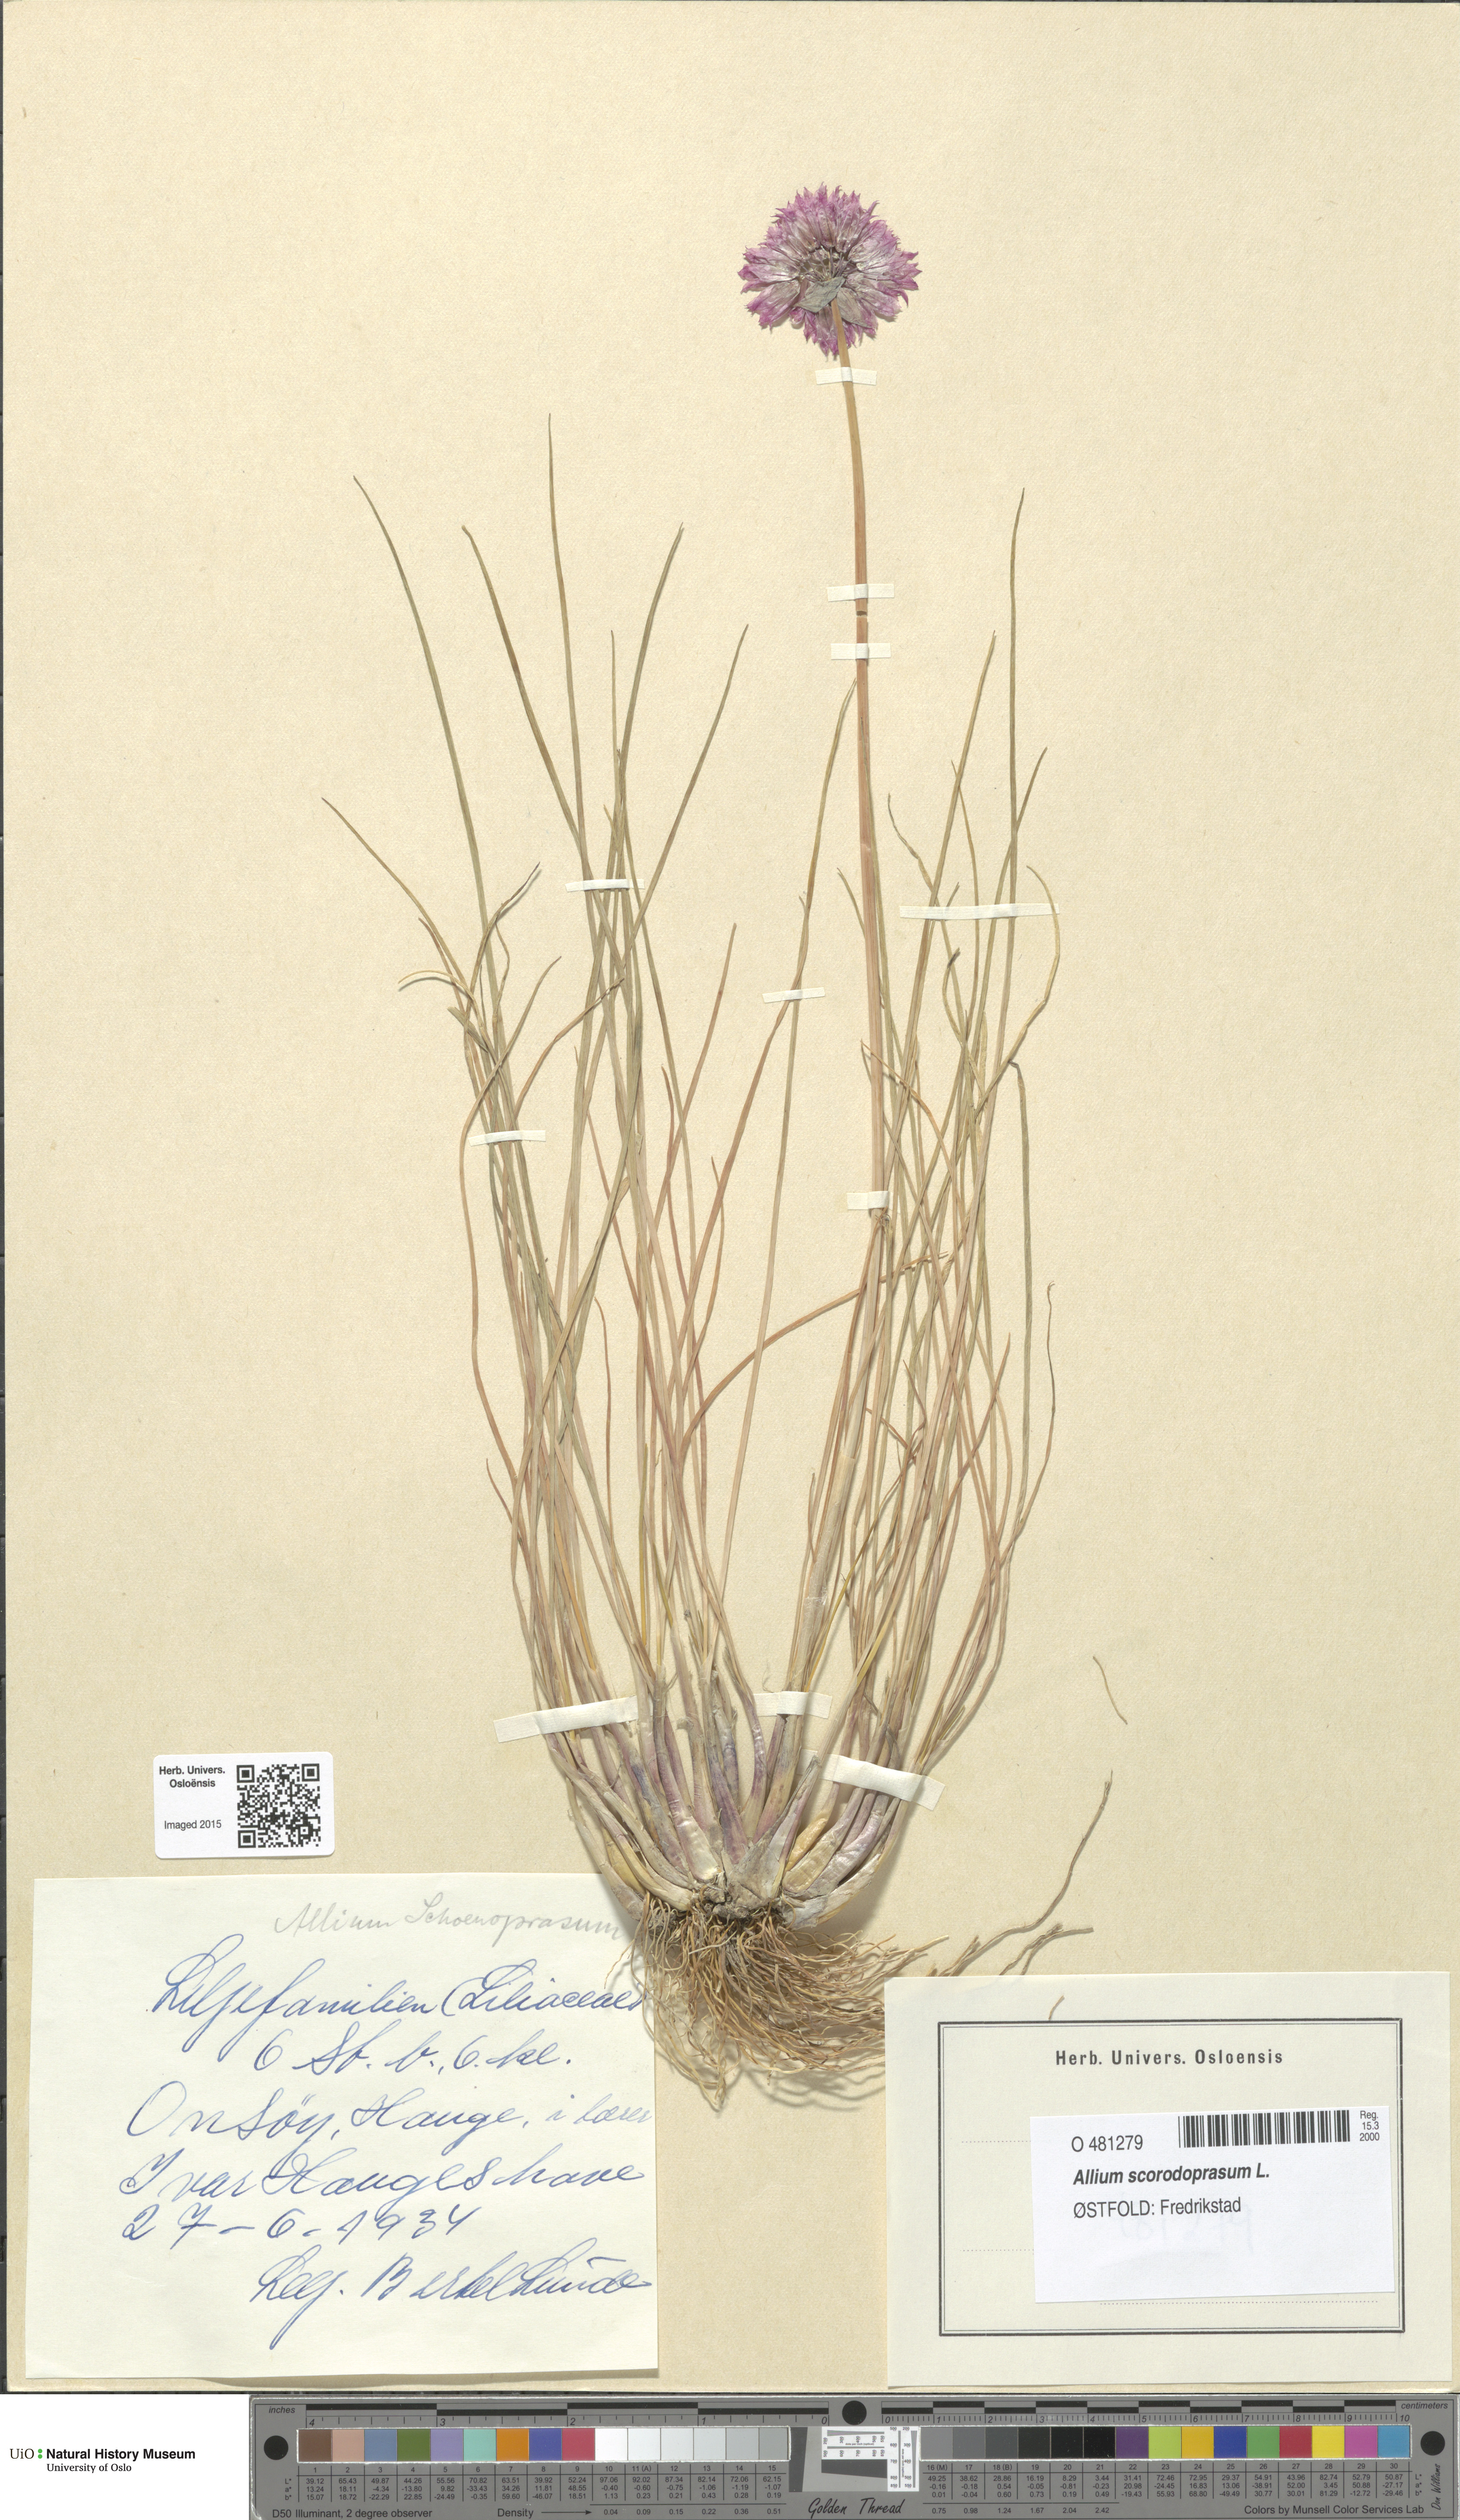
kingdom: Plantae
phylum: Tracheophyta
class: Liliopsida
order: Asparagales
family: Amaryllidaceae
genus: Allium
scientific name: Allium scorodoprasum
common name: Sand leek
